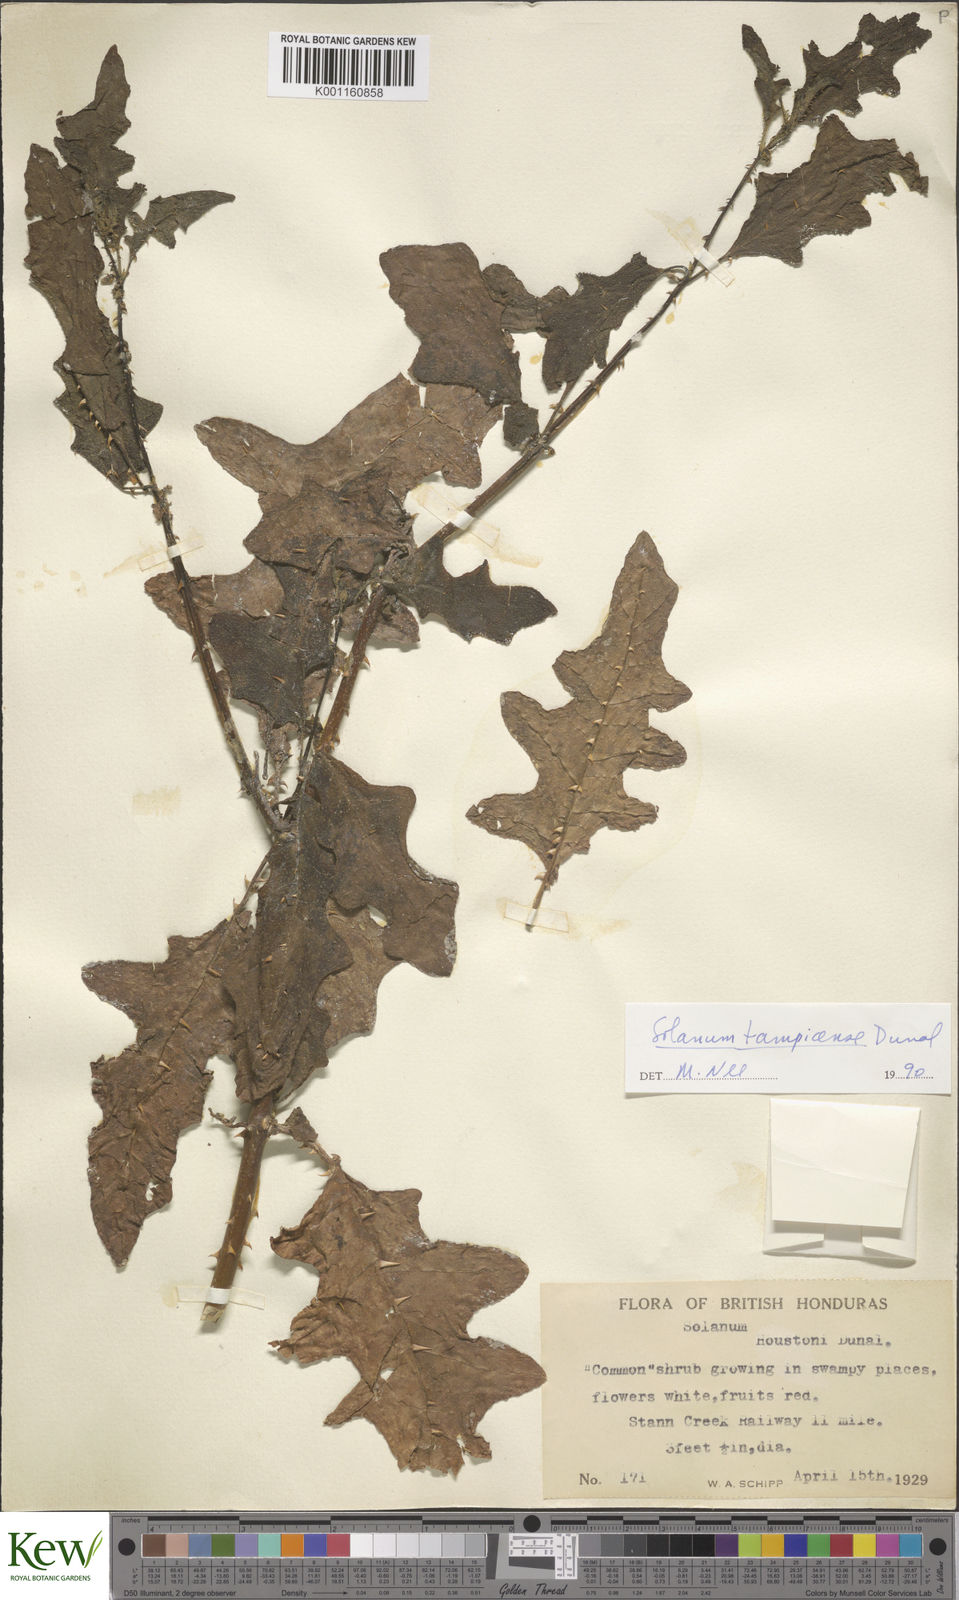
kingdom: Plantae
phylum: Tracheophyta
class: Magnoliopsida
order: Solanales
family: Solanaceae
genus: Solanum
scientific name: Solanum tampicense
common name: Scrambling nightshade
